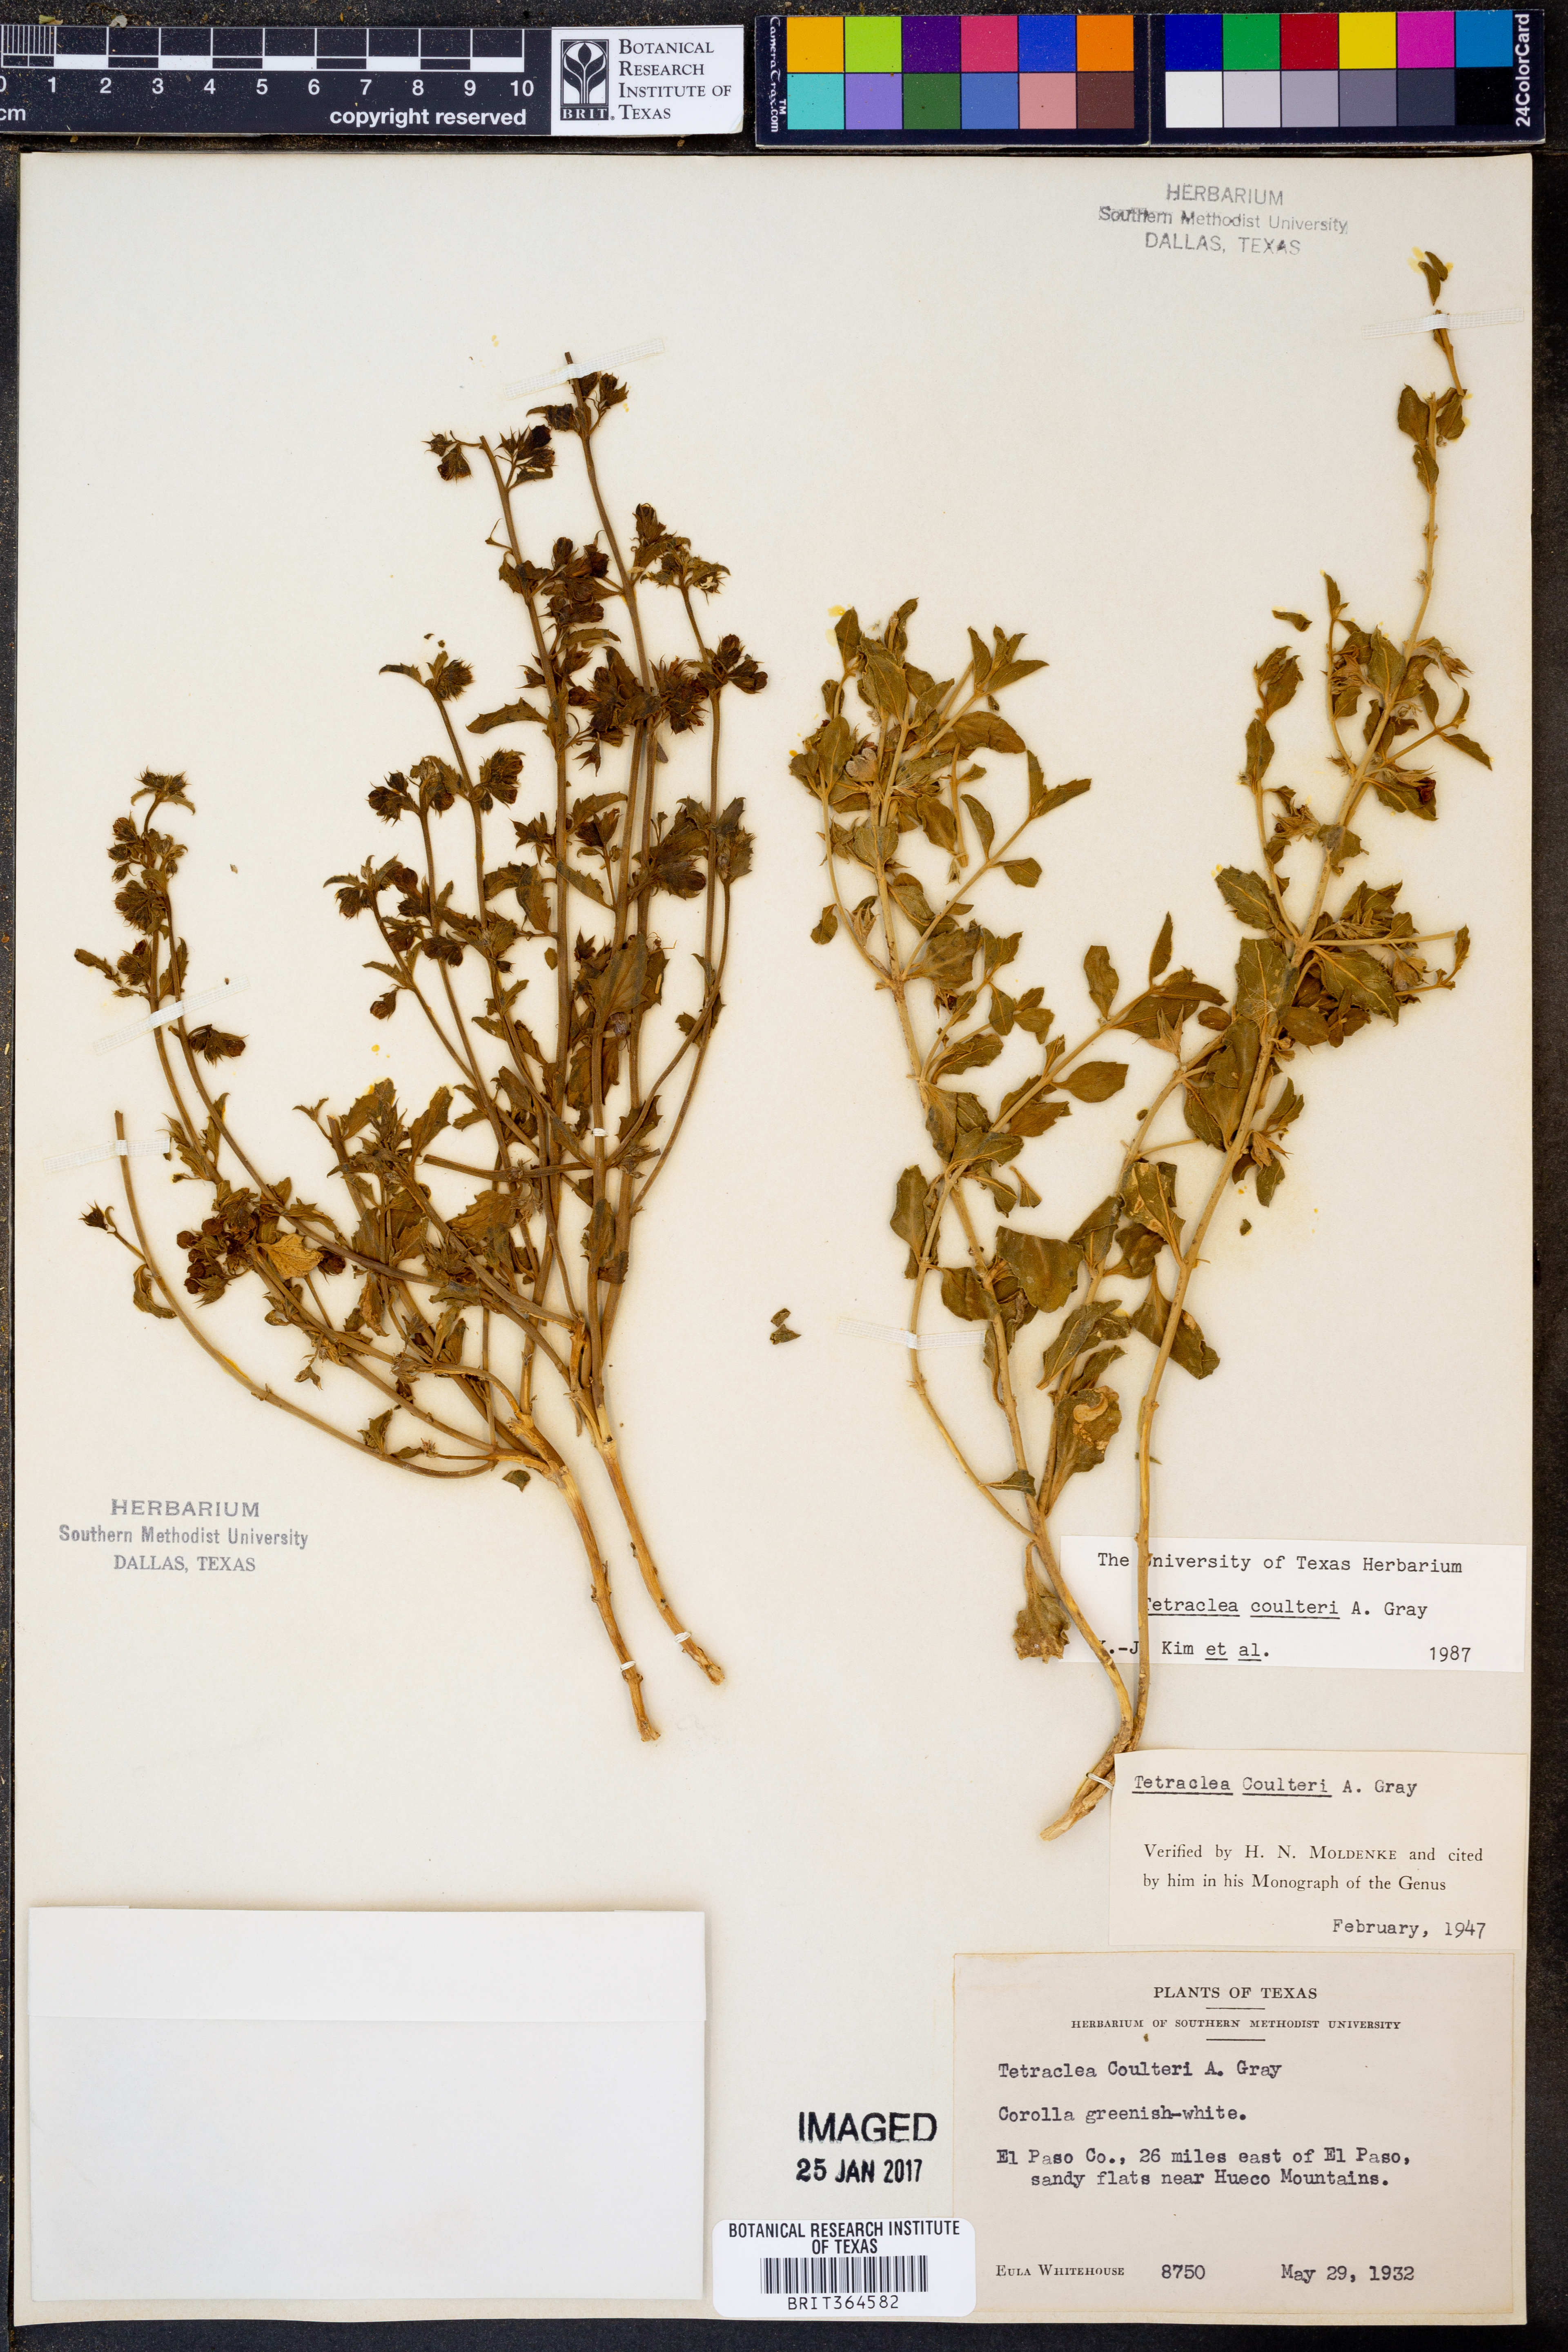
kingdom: Plantae
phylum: Tracheophyta
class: Magnoliopsida
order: Lamiales
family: Lamiaceae
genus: Tetraclea
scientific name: Tetraclea coulteri
